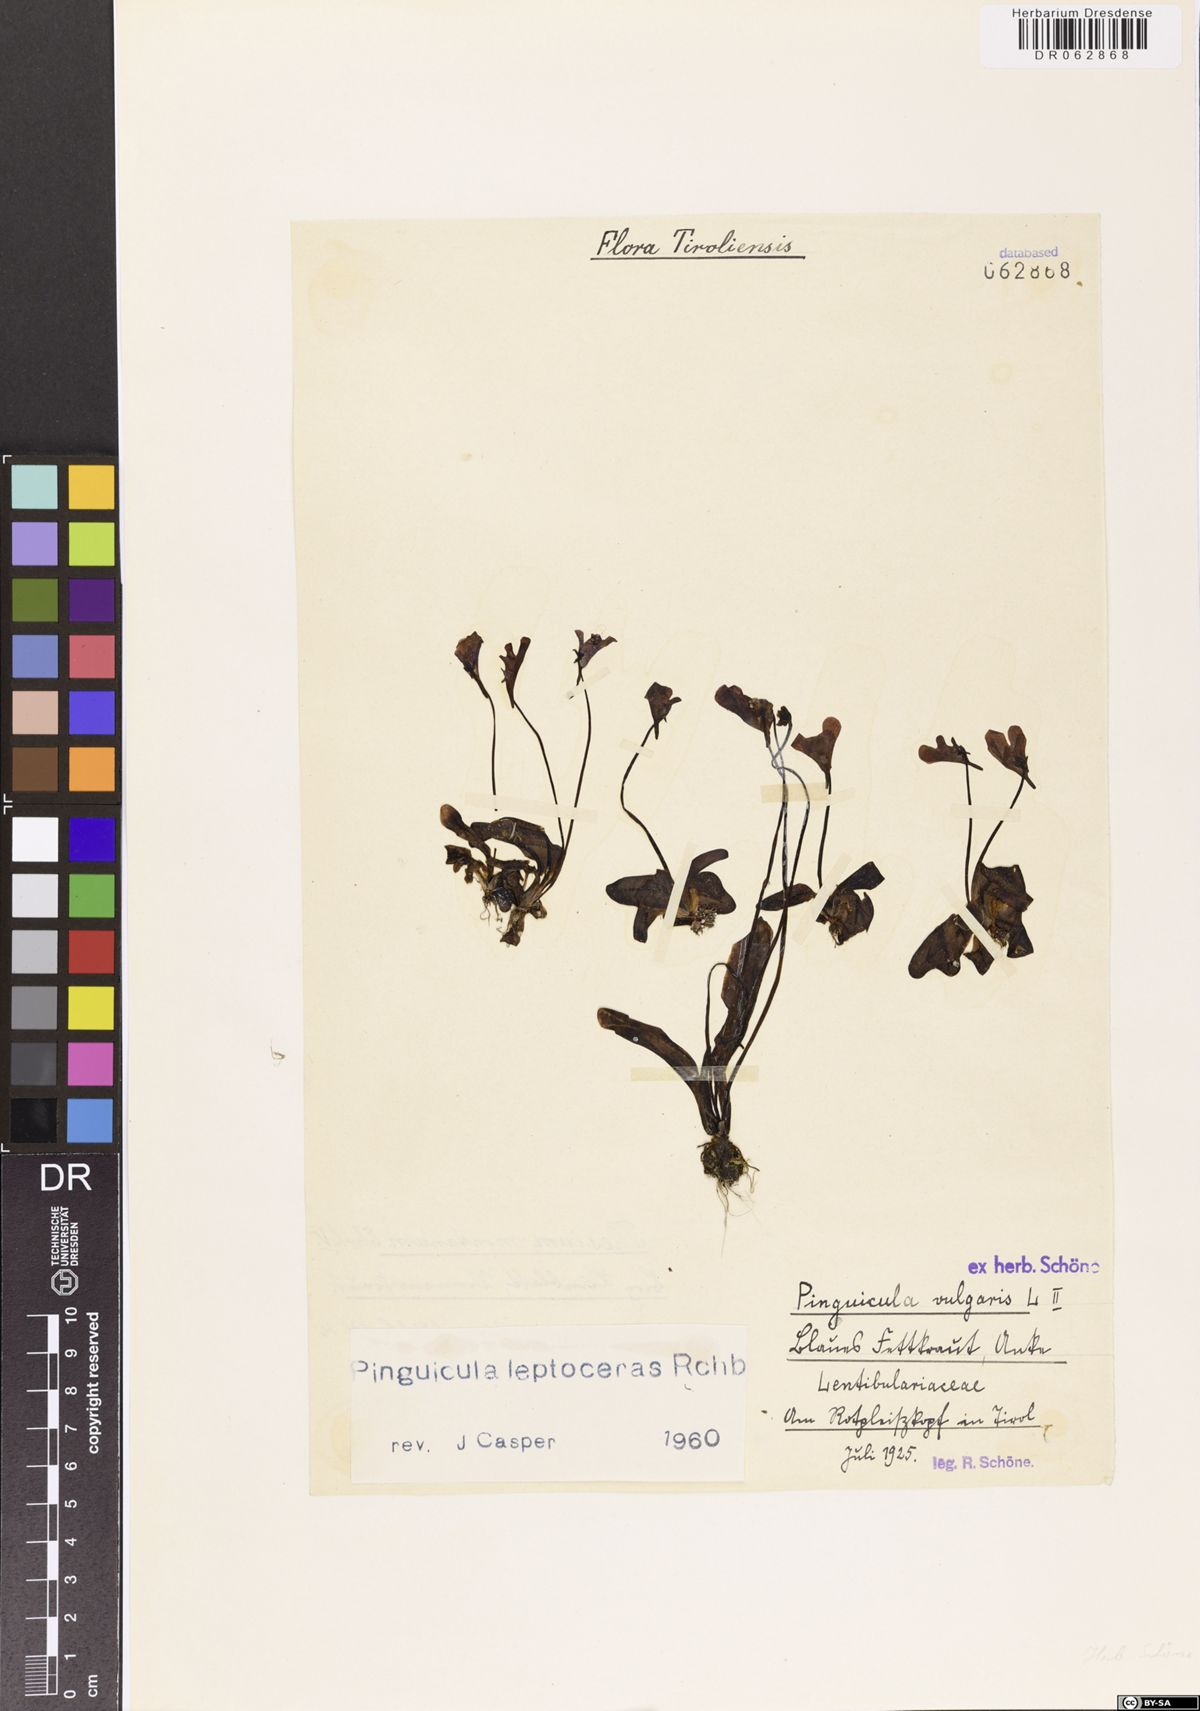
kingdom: Plantae
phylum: Tracheophyta
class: Magnoliopsida
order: Lamiales
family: Lentibulariaceae
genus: Pinguicula
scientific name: Pinguicula leptoceras
